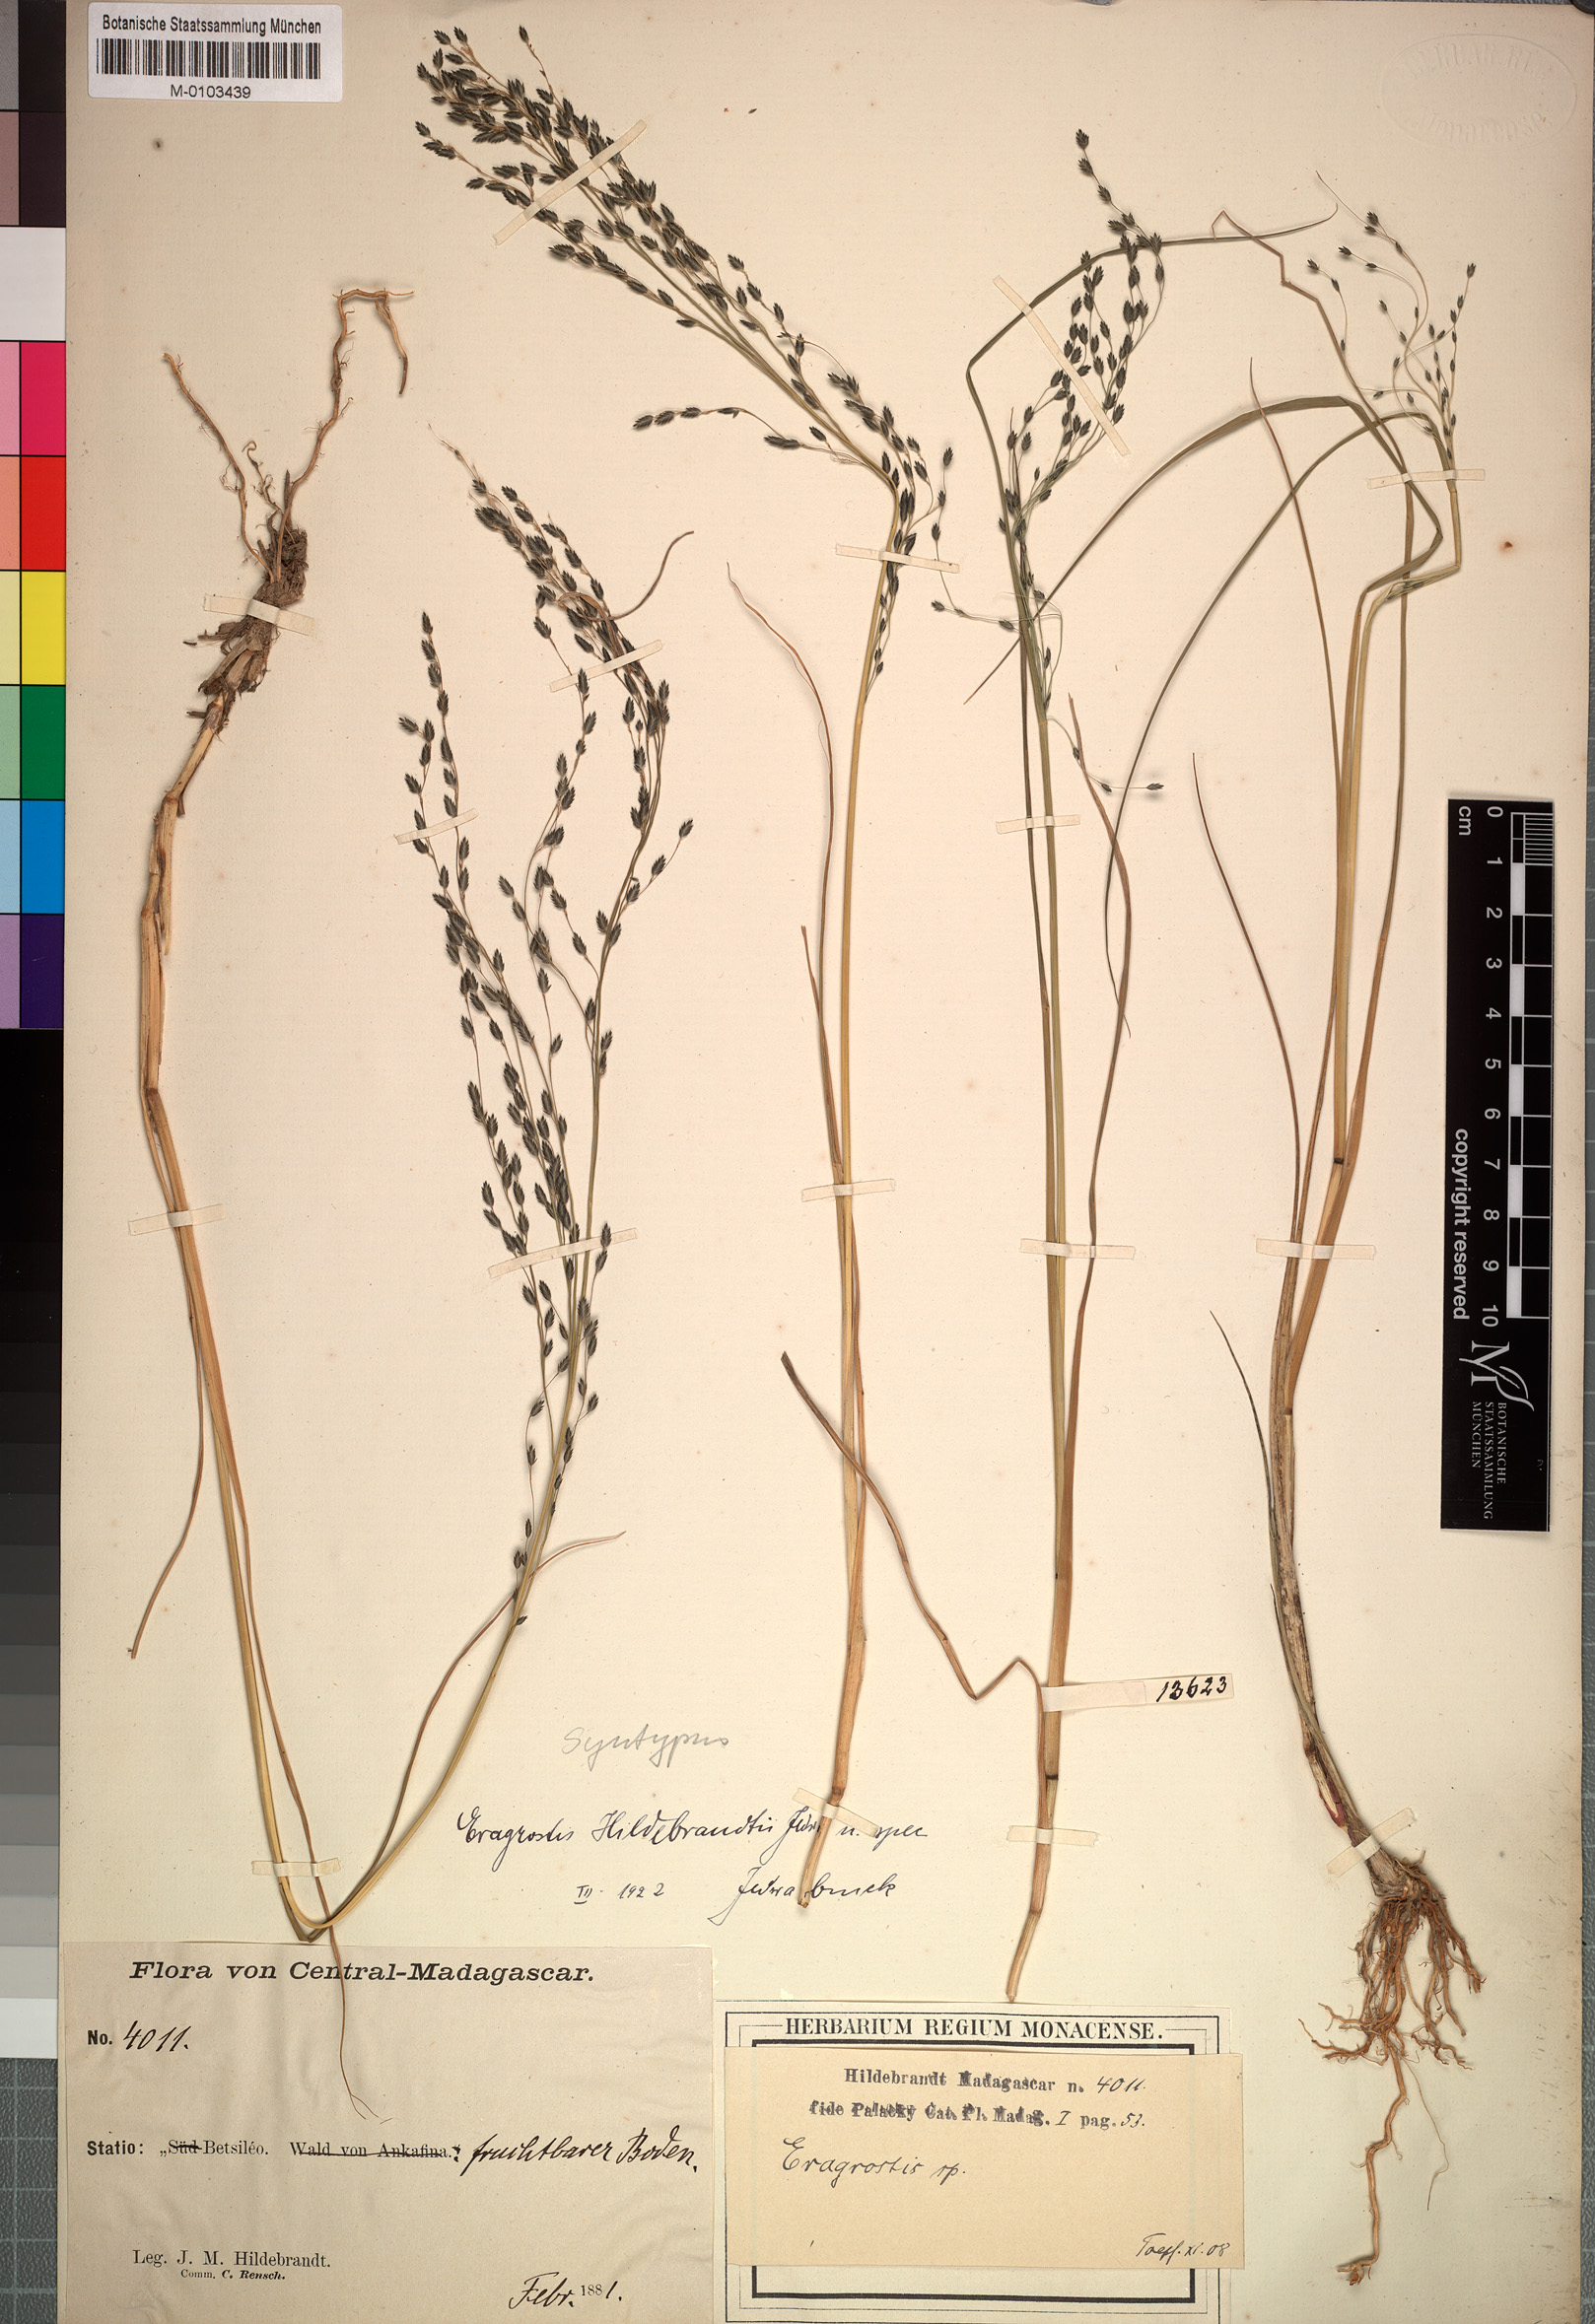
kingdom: Plantae
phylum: Tracheophyta
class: Liliopsida
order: Poales
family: Poaceae
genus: Eragrostis
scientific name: Eragrostis hildebrandtii
